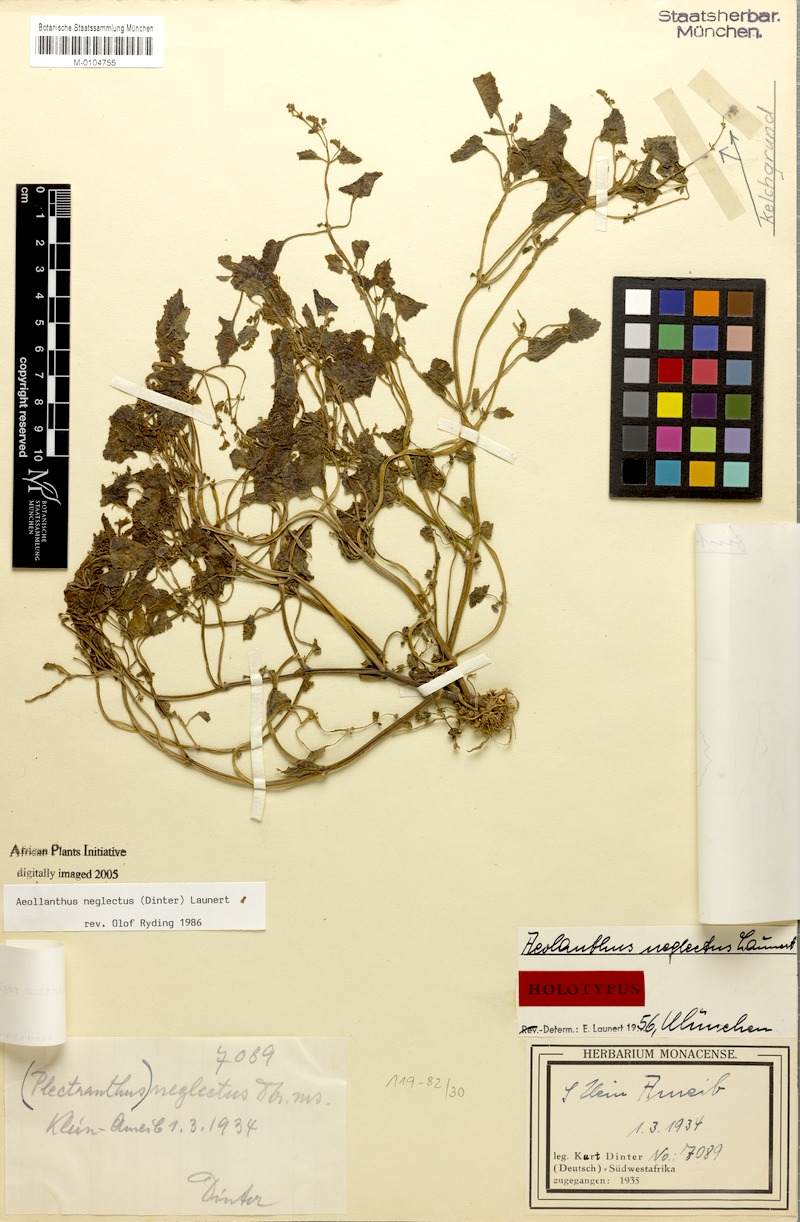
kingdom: Plantae
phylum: Tracheophyta
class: Magnoliopsida
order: Lamiales
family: Lamiaceae
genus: Aeollanthus
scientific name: Aeollanthus neglectus
